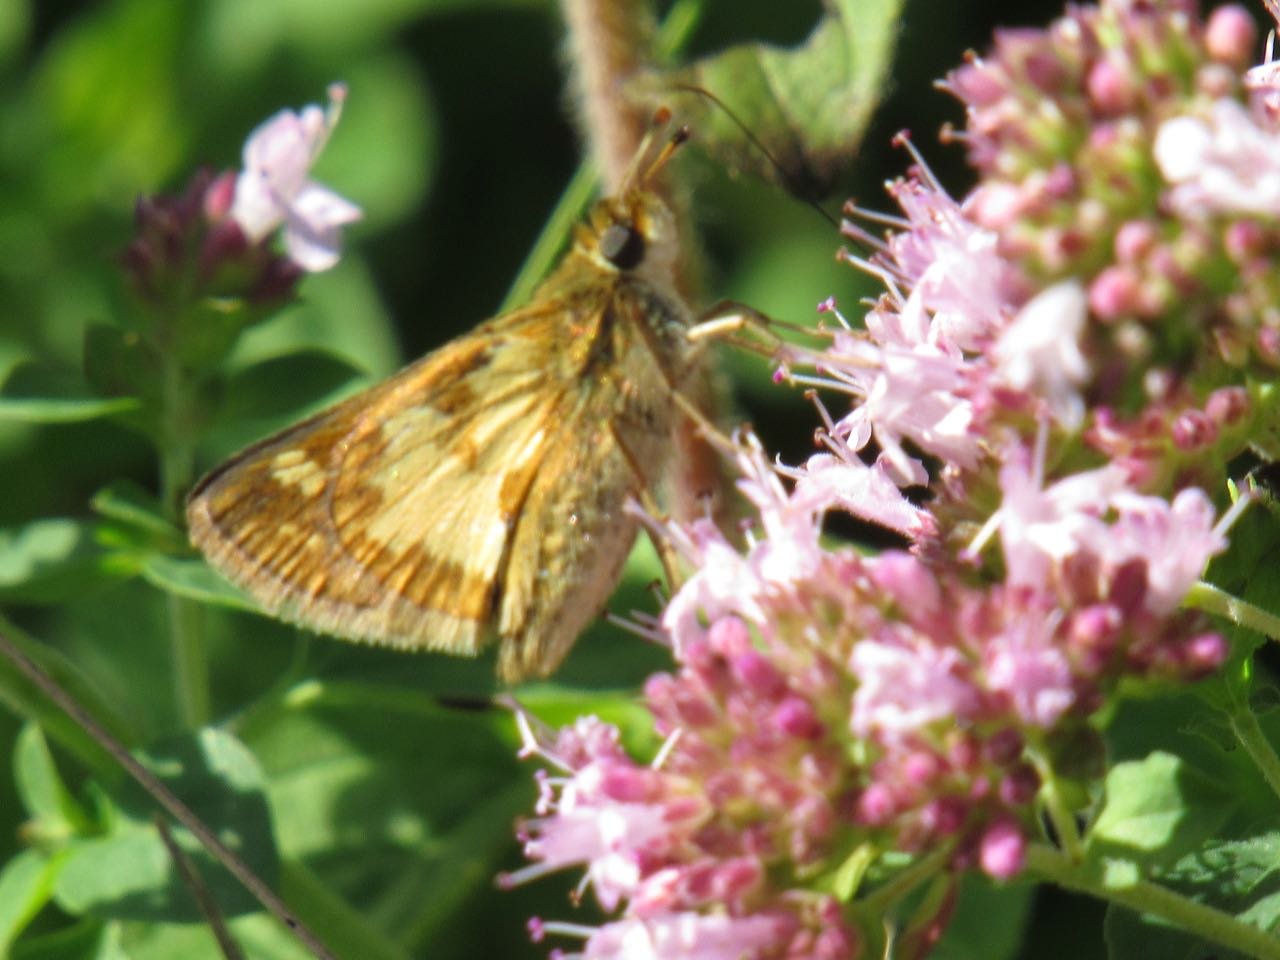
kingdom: Animalia
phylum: Arthropoda
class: Insecta
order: Lepidoptera
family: Hesperiidae
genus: Polites
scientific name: Polites coras
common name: Peck's Skipper
